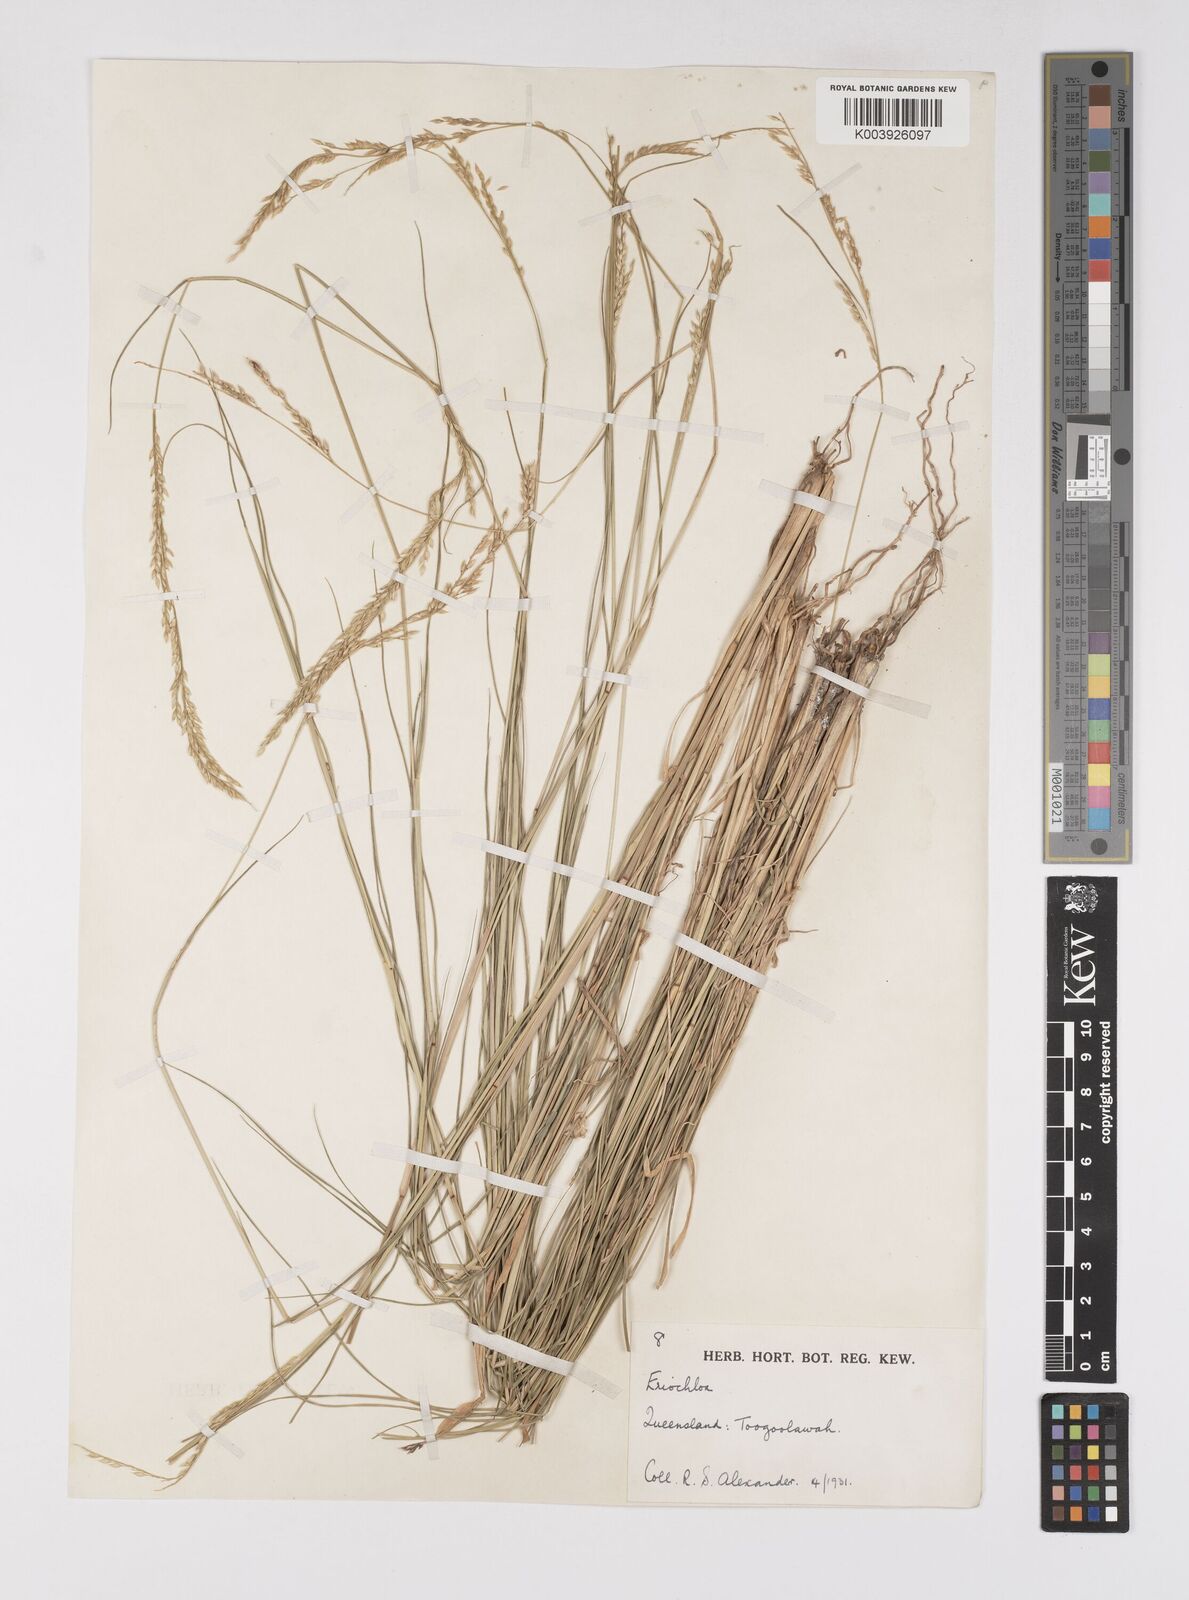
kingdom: Plantae
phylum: Tracheophyta
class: Liliopsida
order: Poales
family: Poaceae
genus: Eriochloa
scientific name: Eriochloa
